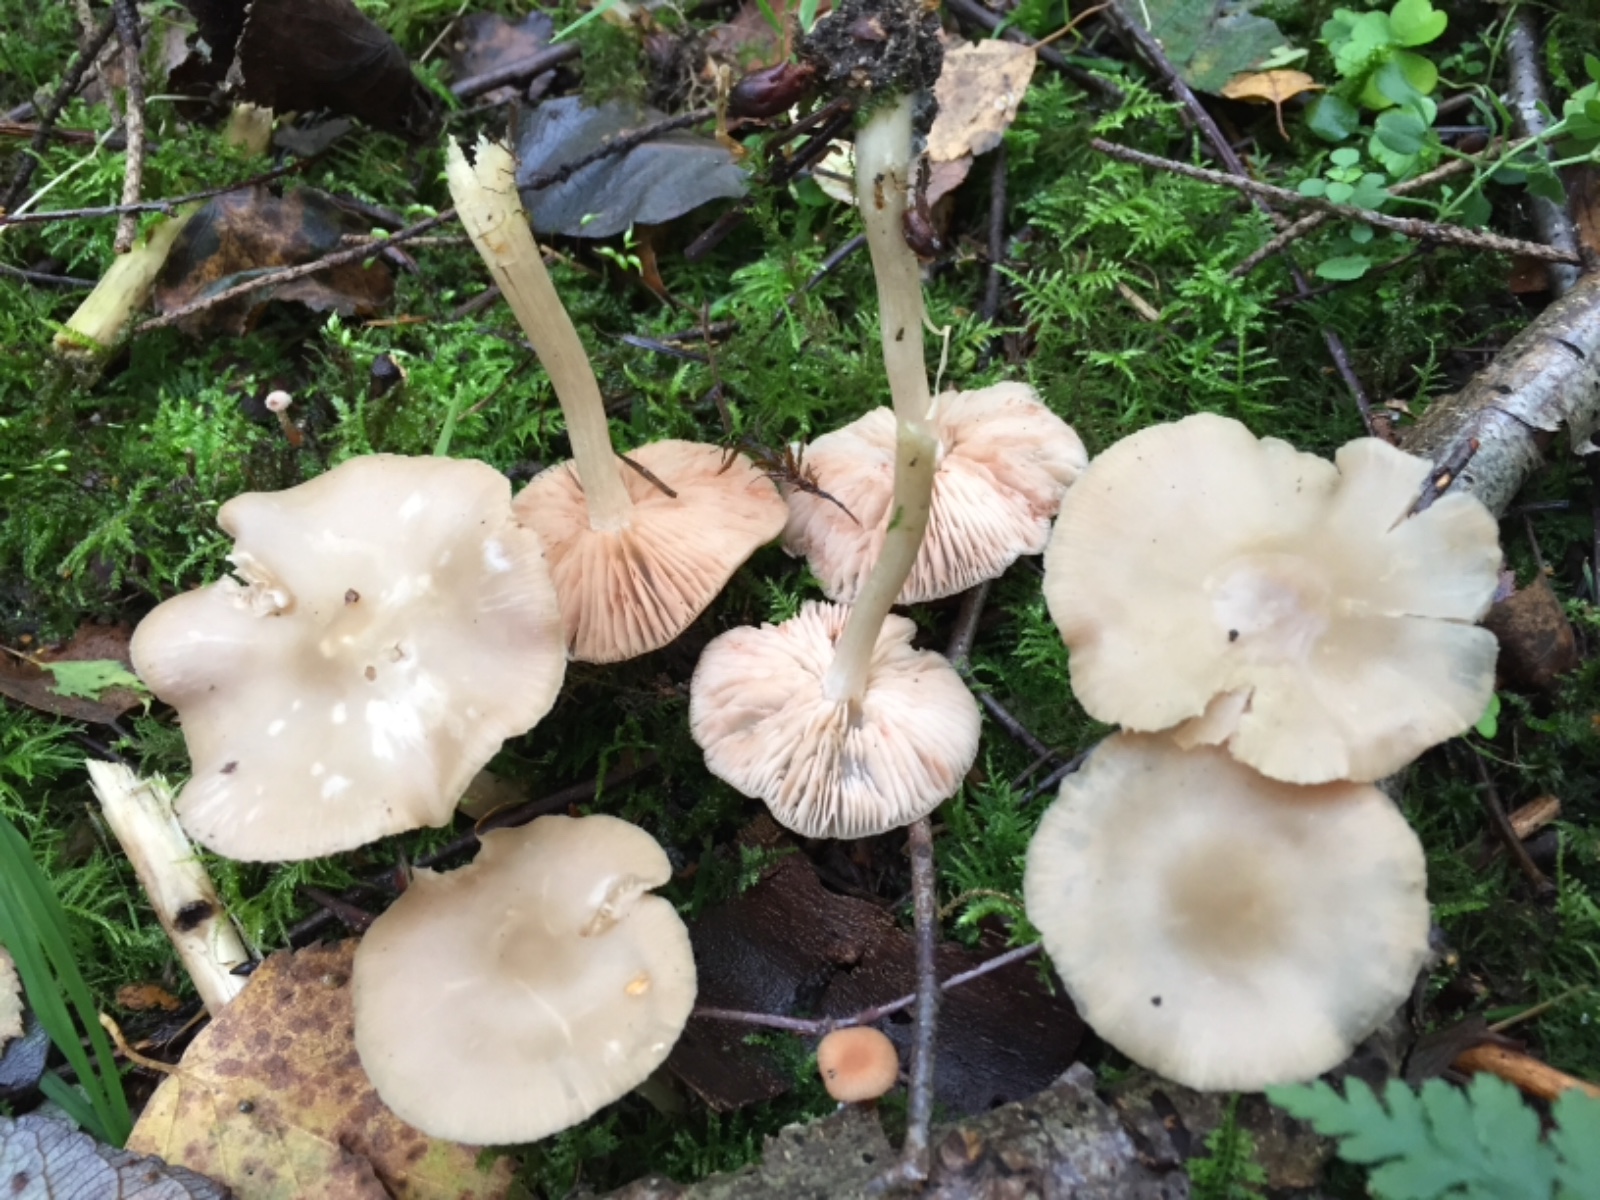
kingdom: Fungi
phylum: Basidiomycota
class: Agaricomycetes
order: Agaricales
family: Entolomataceae
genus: Entoloma
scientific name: Entoloma
